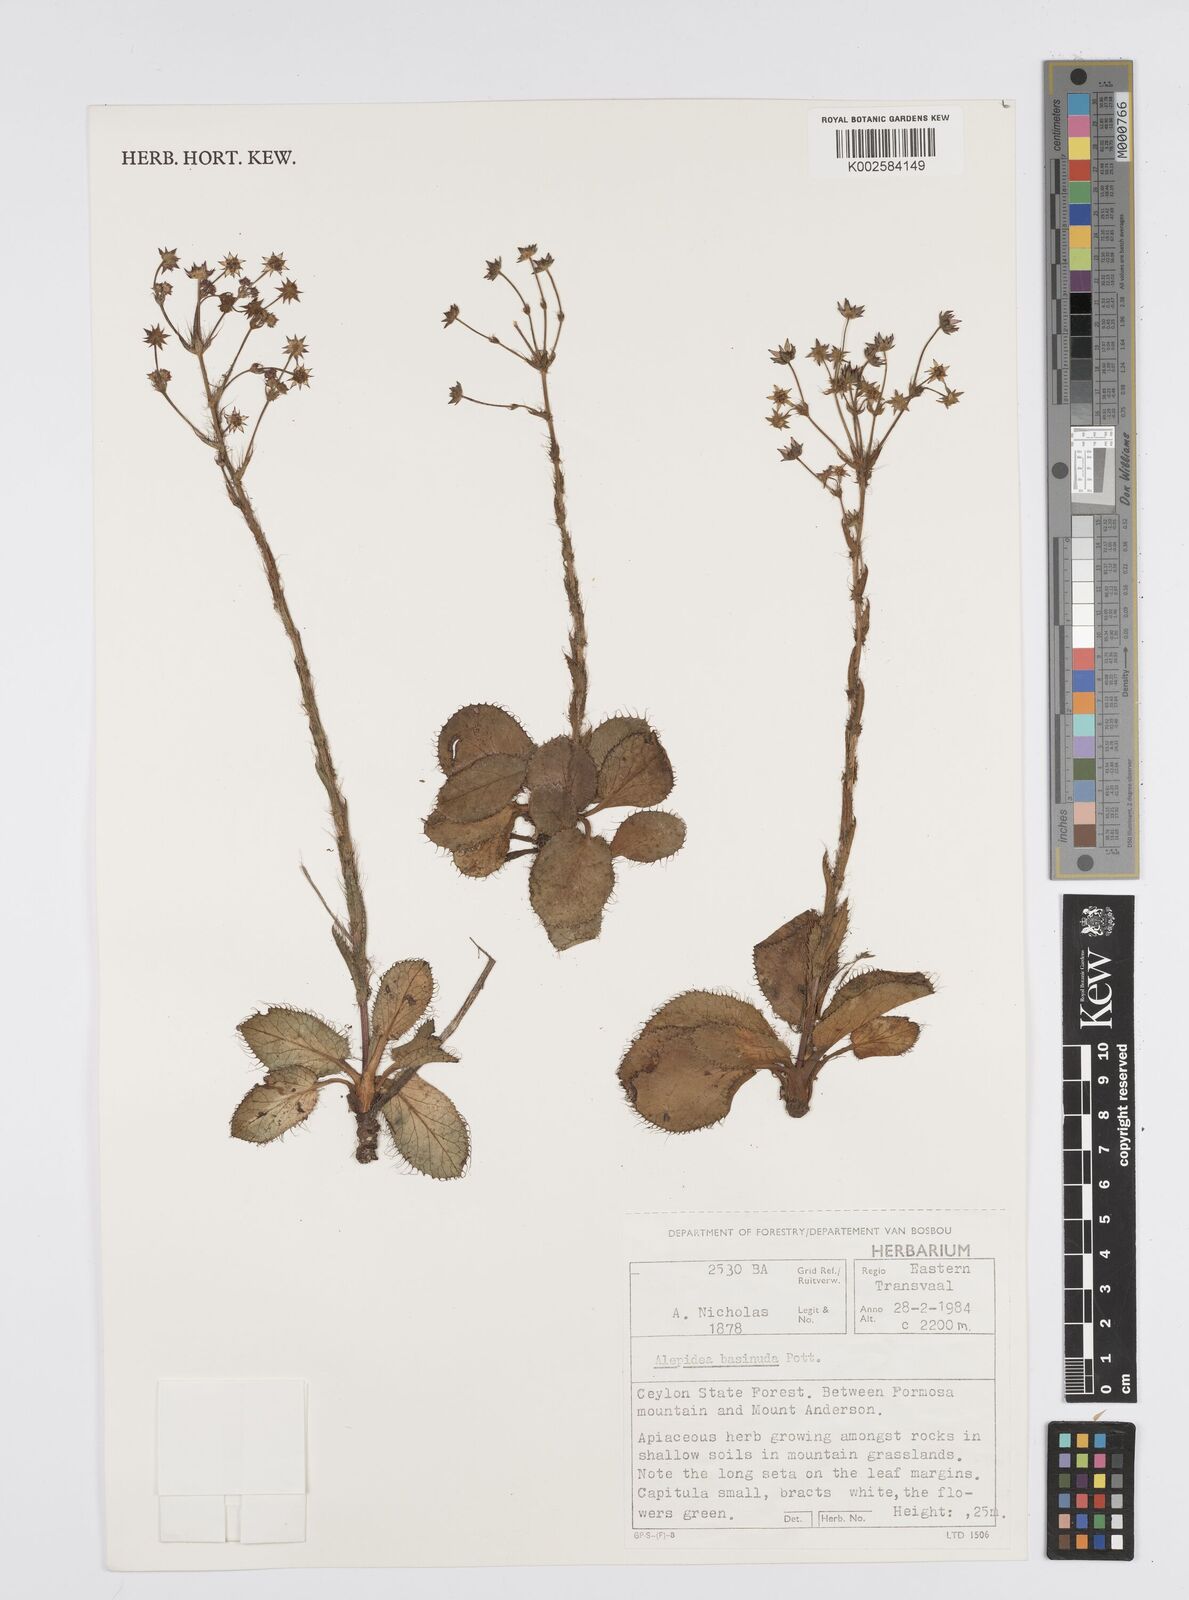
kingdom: Plantae
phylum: Tracheophyta
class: Magnoliopsida
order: Apiales
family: Apiaceae
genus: Alepidea
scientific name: Alepidea setifera
